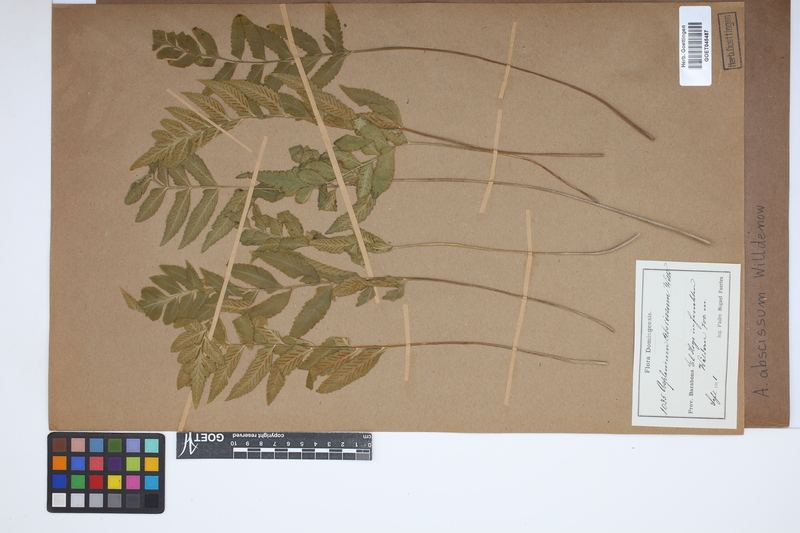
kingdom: Plantae
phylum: Tracheophyta
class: Polypodiopsida
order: Polypodiales
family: Aspleniaceae
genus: Asplenium
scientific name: Asplenium abscissum
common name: Cutleaf spleenwort
